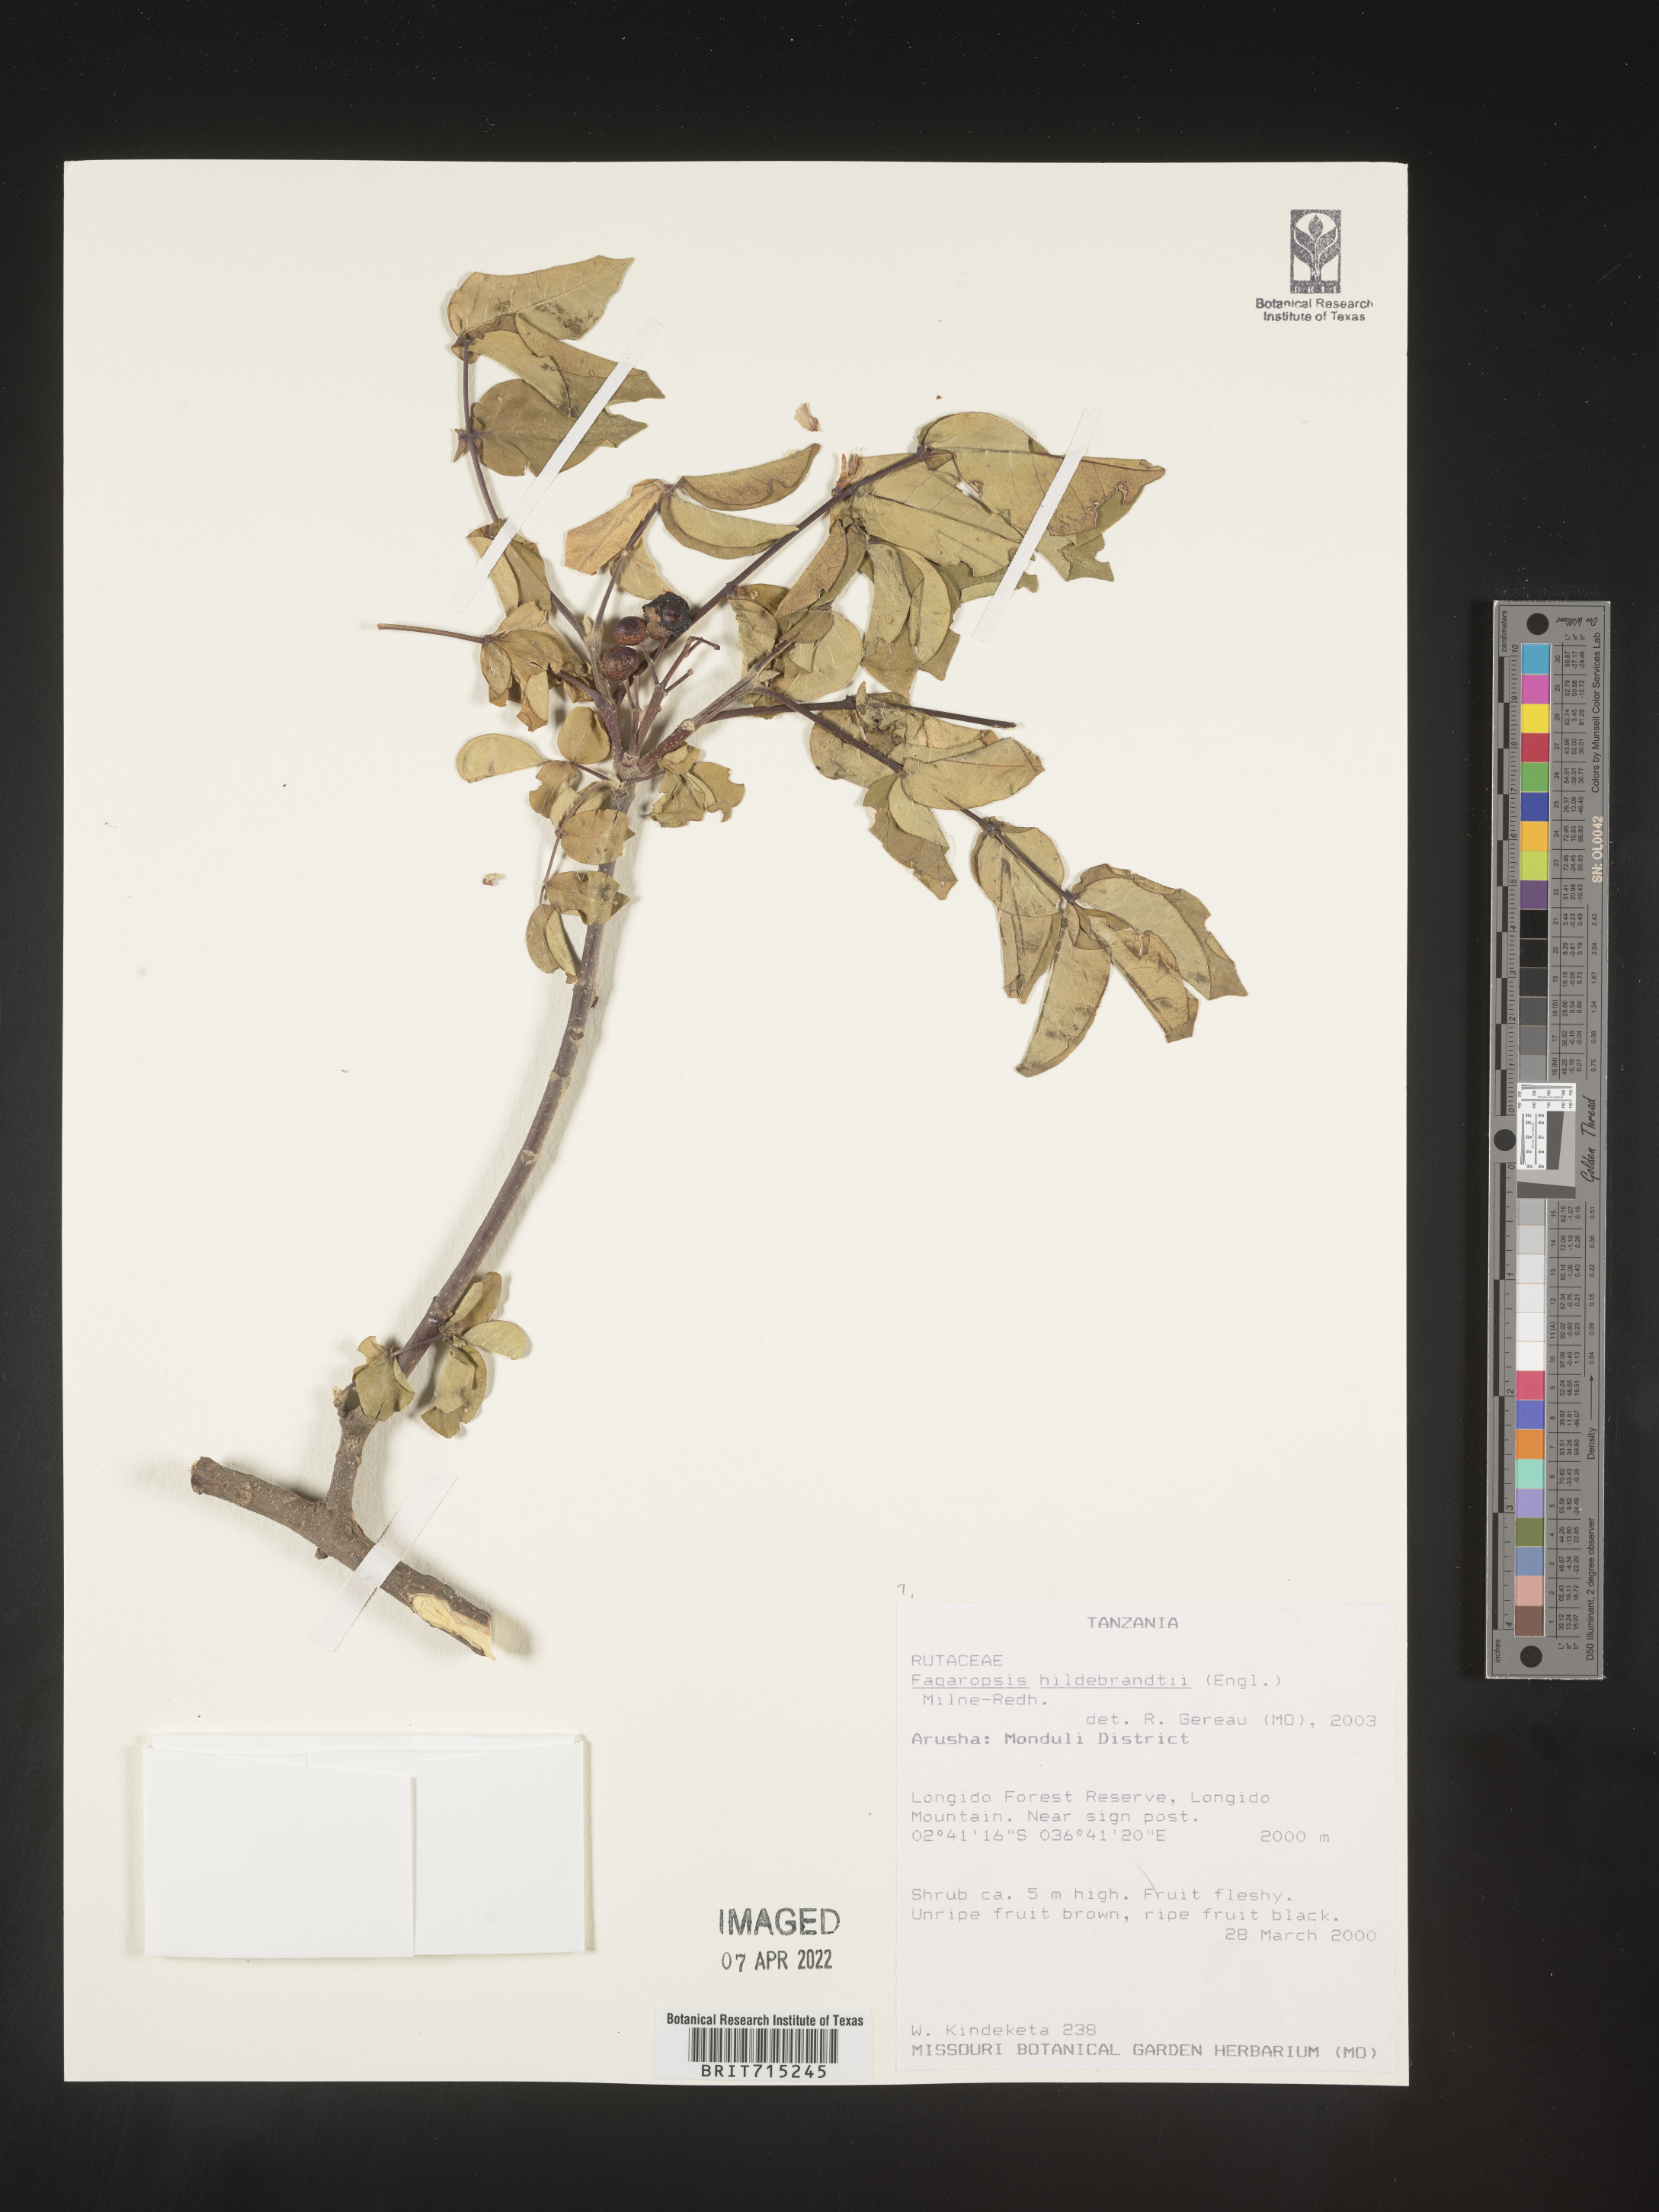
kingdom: Plantae
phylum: Tracheophyta
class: Magnoliopsida
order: Sapindales
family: Rutaceae
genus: Zanthoxylum
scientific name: Zanthoxylum
